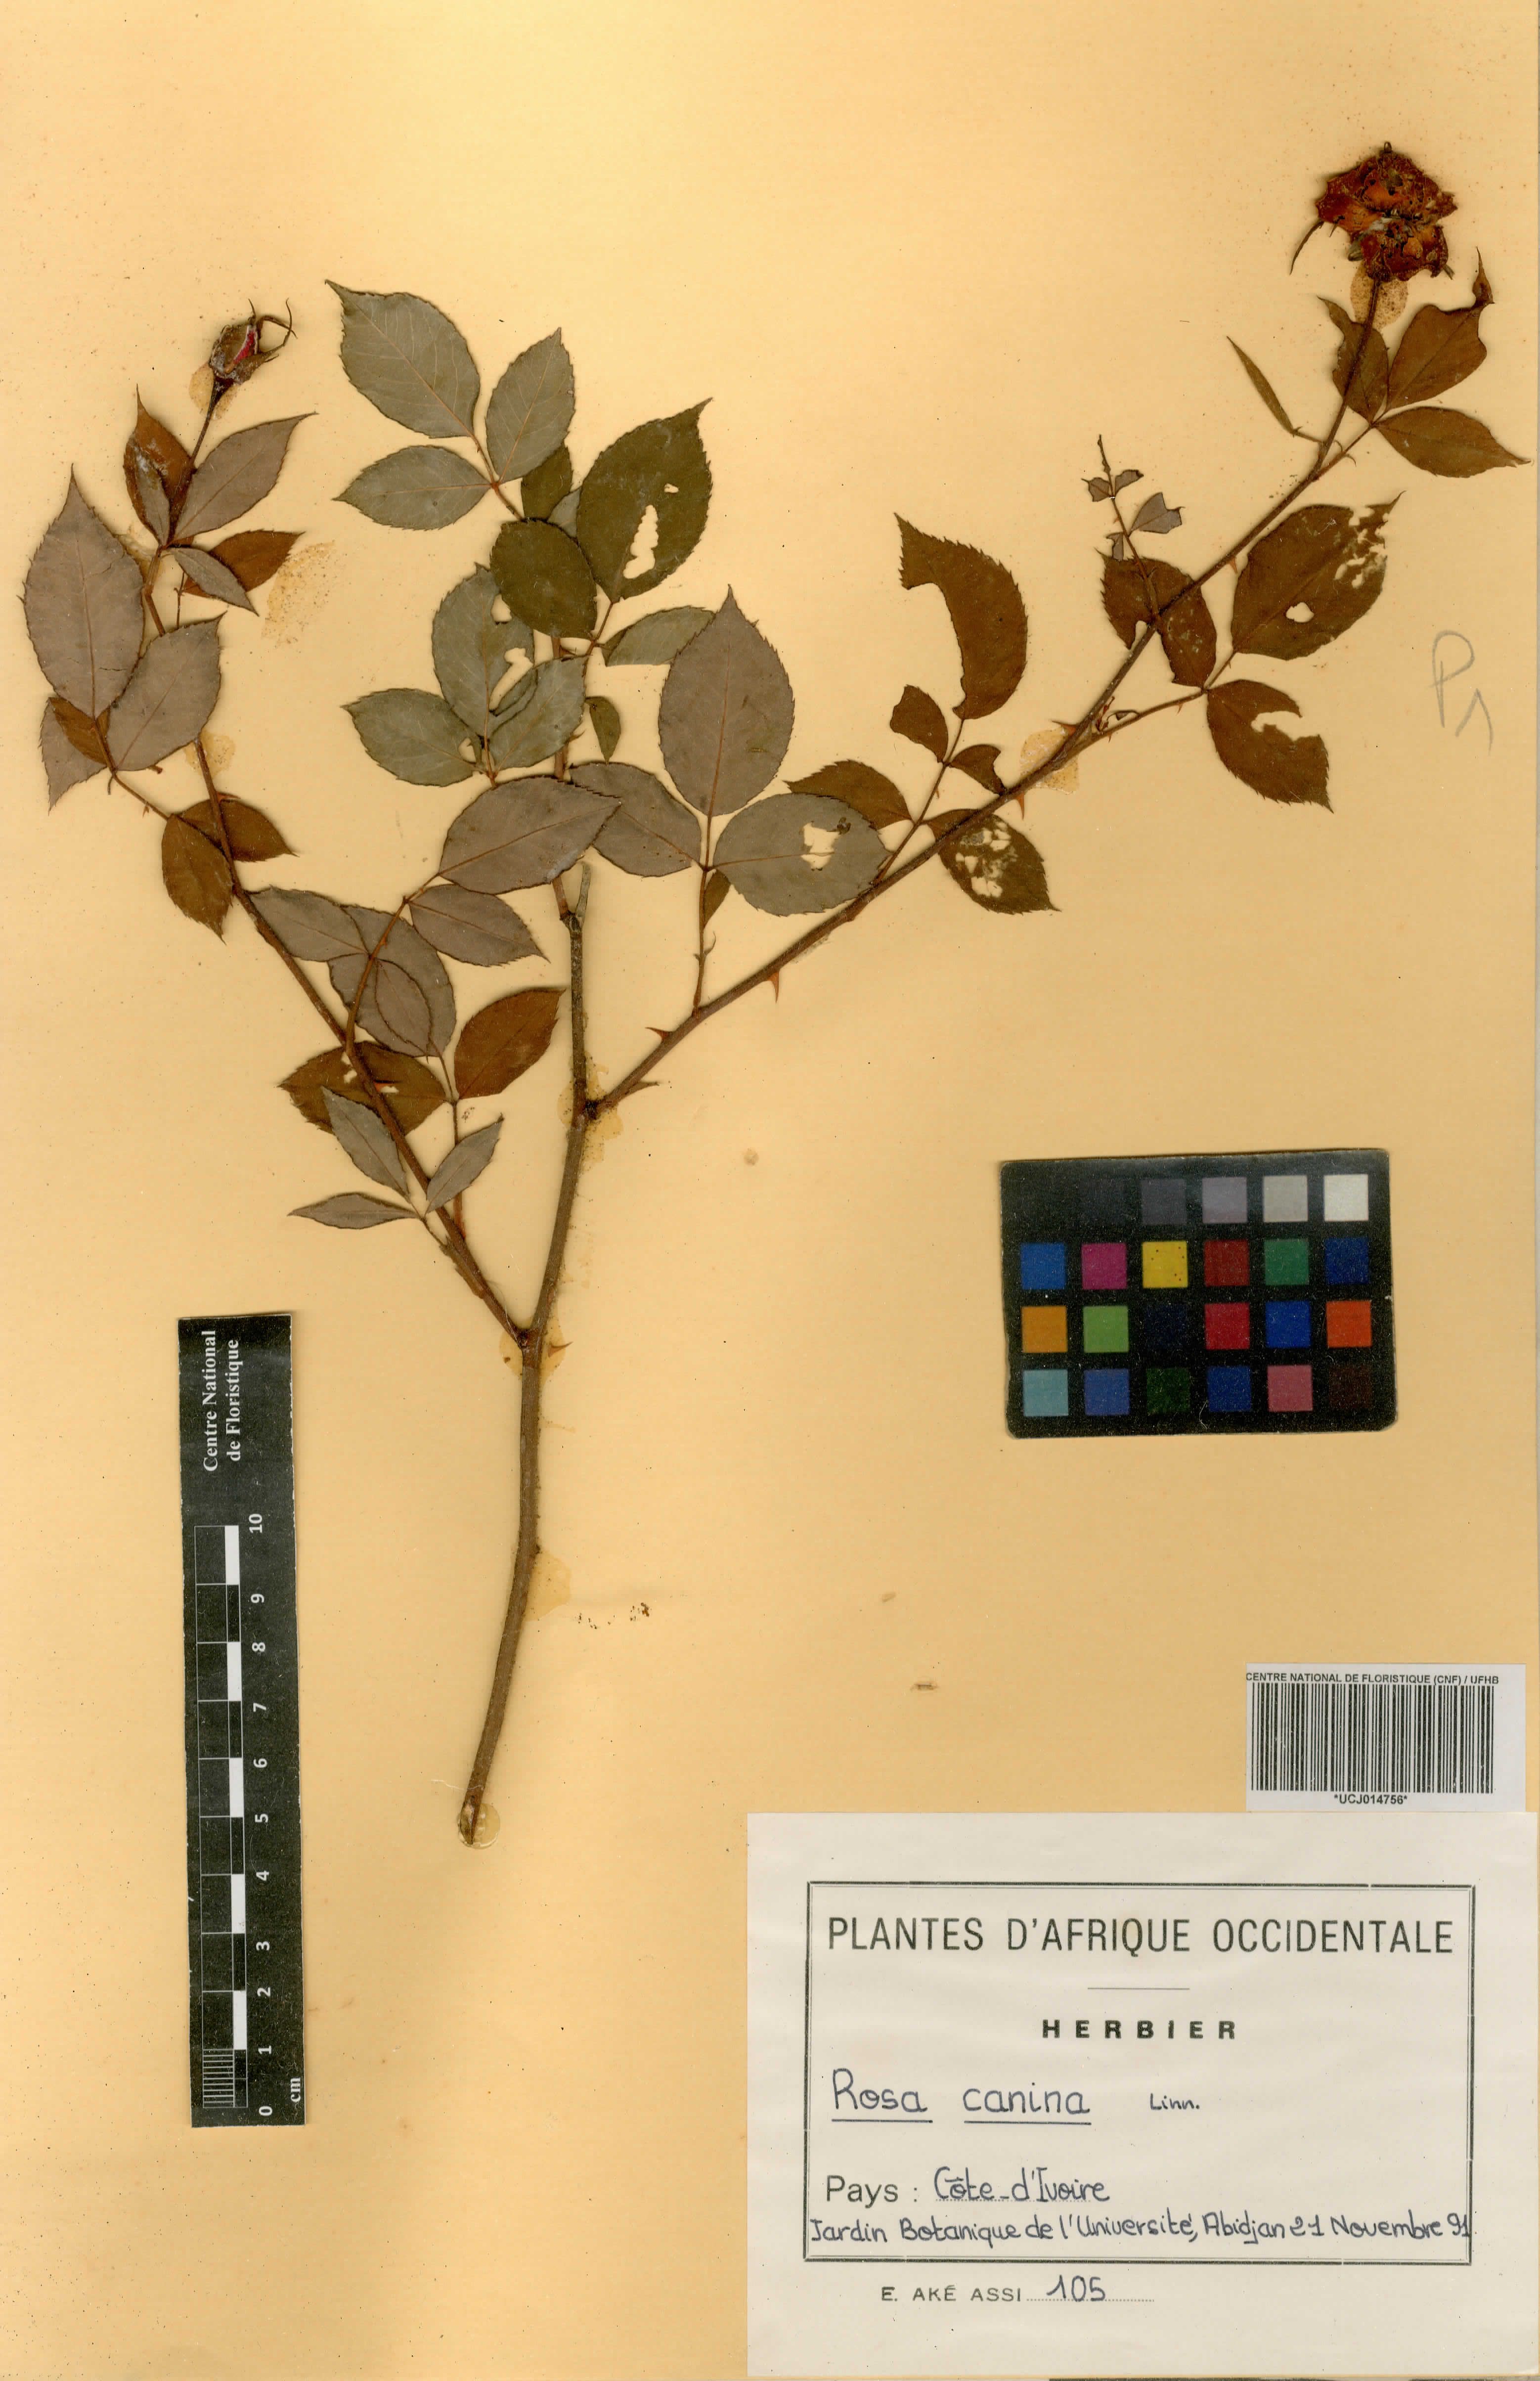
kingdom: Plantae
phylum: Tracheophyta
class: Magnoliopsida
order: Rosales
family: Rosaceae
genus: Rosa
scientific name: Rosa canina
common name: Dog rose
